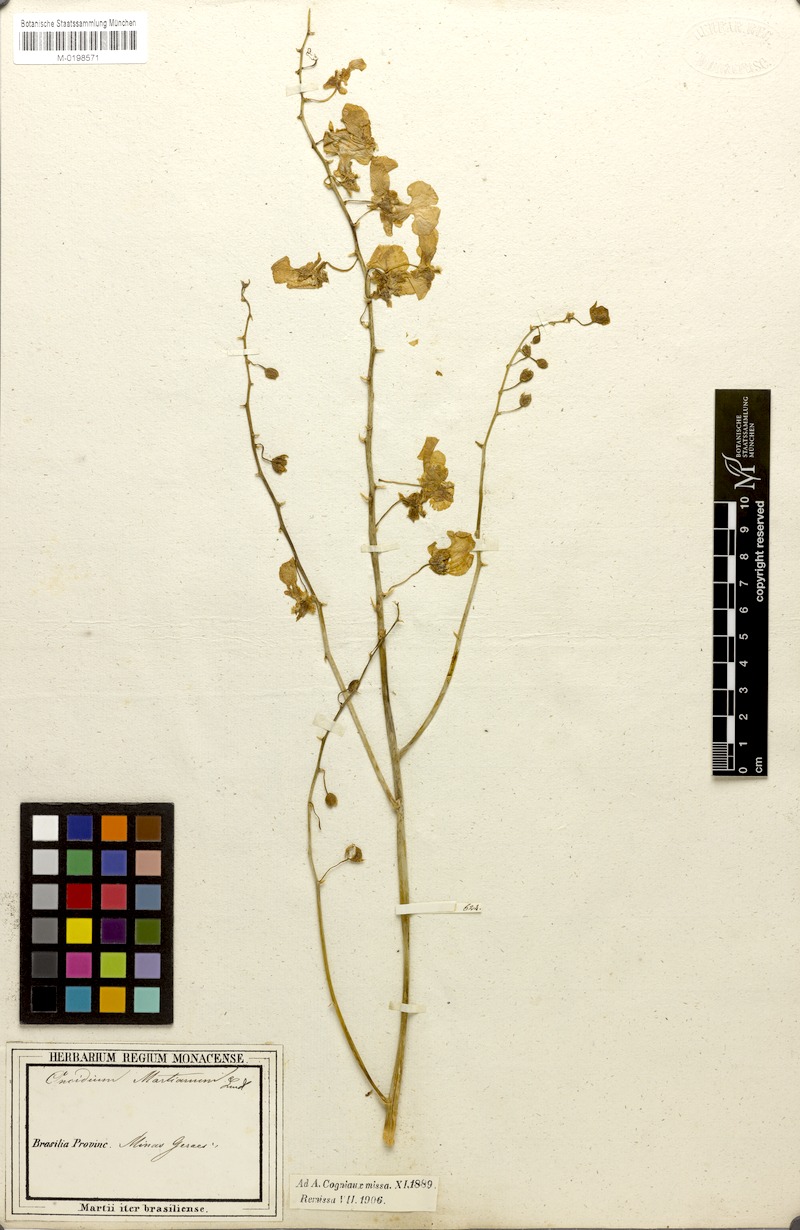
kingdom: Plantae
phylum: Tracheophyta
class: Liliopsida
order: Asparagales
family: Orchidaceae
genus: Gomesa
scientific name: Gomesa martiana
